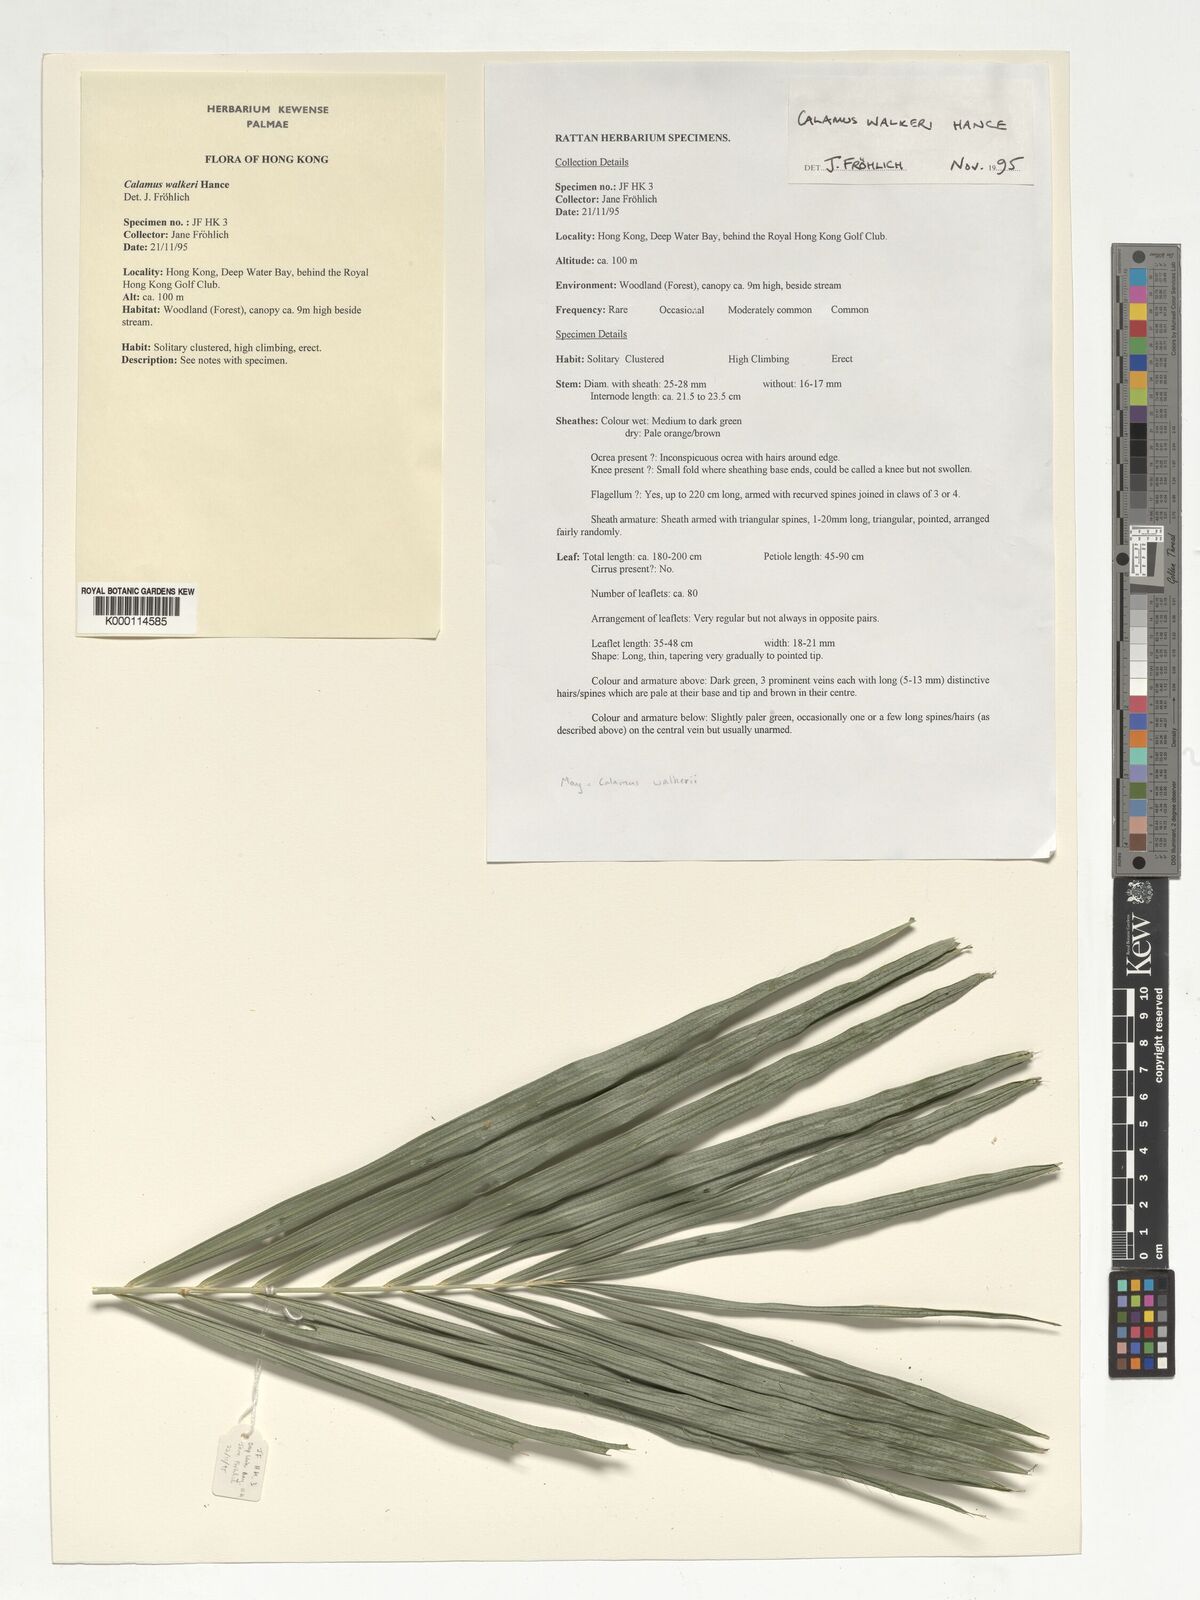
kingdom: Plantae
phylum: Tracheophyta
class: Liliopsida
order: Arecales
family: Arecaceae
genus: Calamus
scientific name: Calamus walkeri
